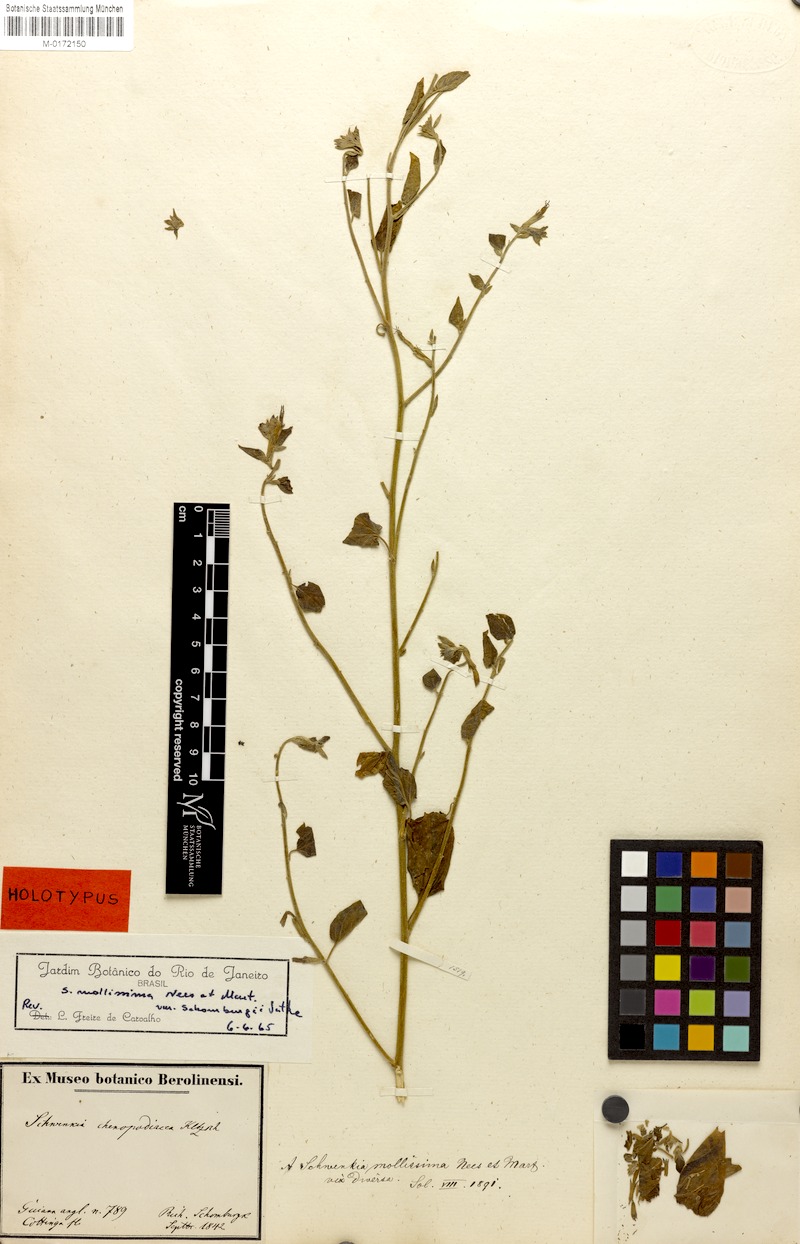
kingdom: Plantae
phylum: Tracheophyta
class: Magnoliopsida
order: Solanales
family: Solanaceae
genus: Schwenckia
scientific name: Schwenckia mollissima
